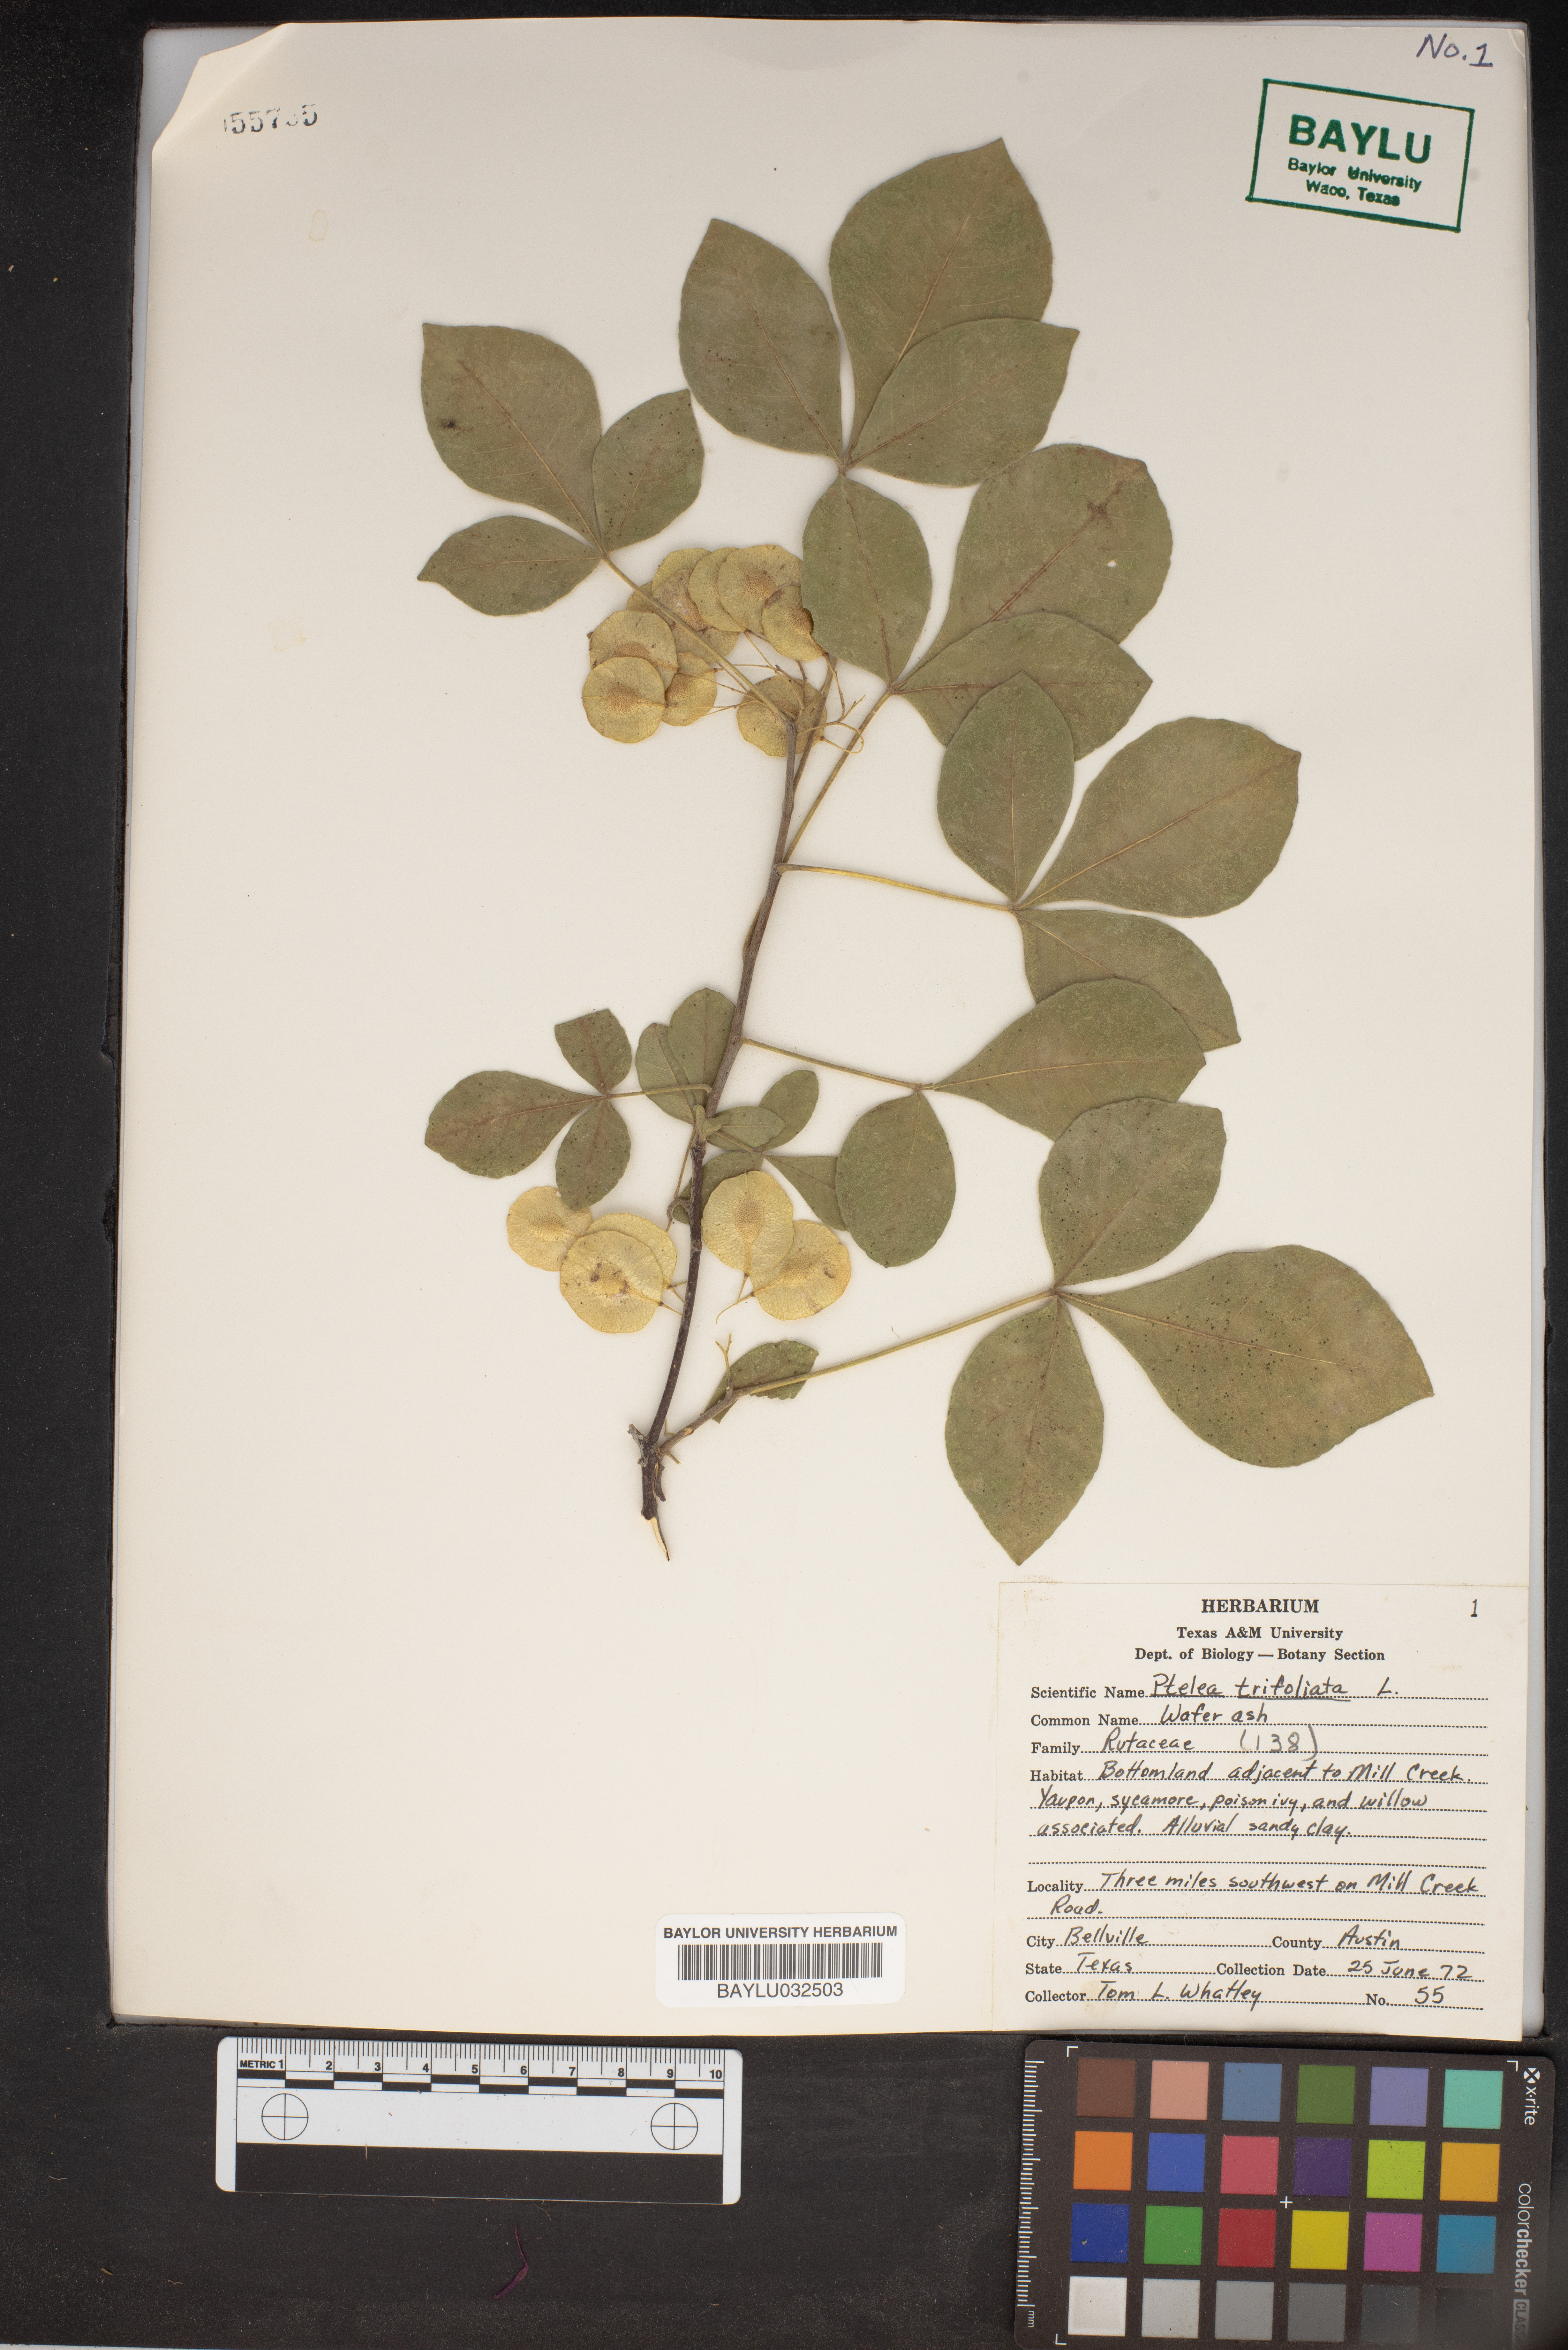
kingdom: Plantae
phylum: Tracheophyta
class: Magnoliopsida
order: Sapindales
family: Rutaceae
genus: Ptelea
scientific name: Ptelea trifoliata
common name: Common hop-tree
